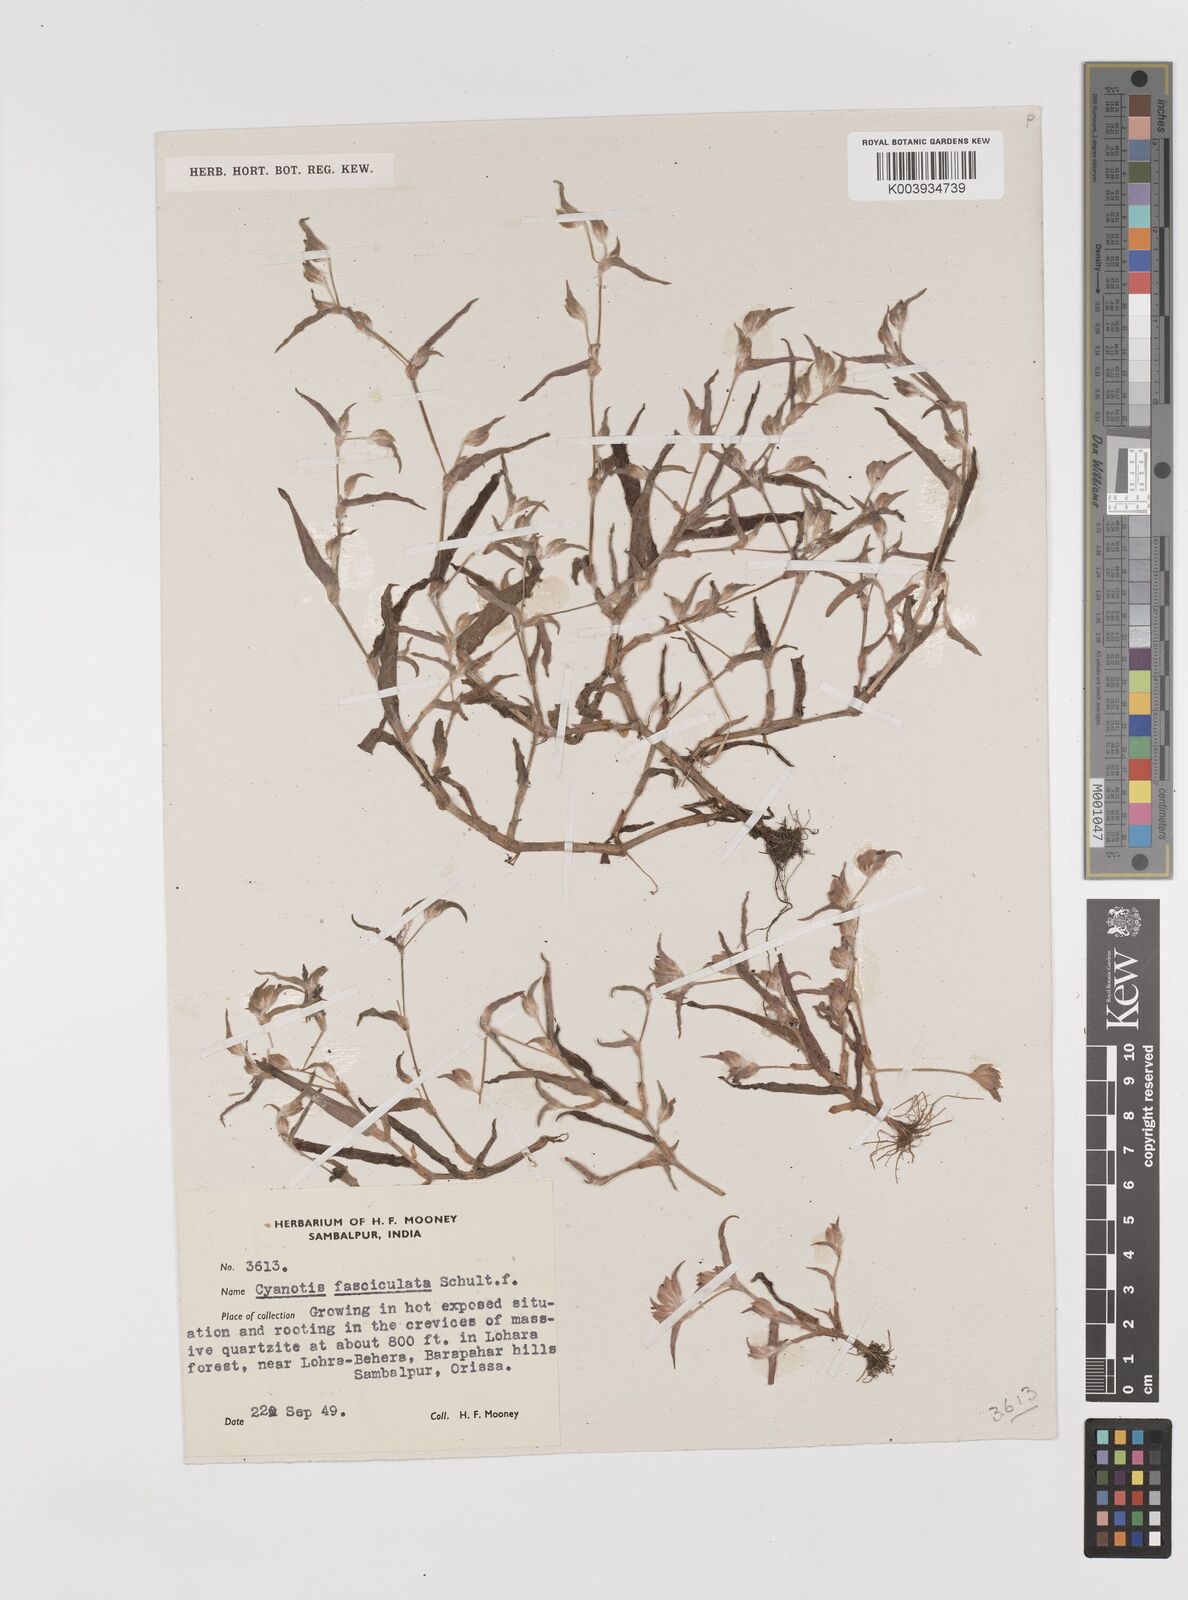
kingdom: Plantae
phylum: Tracheophyta
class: Liliopsida
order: Commelinales
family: Commelinaceae
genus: Cyanotis
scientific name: Cyanotis fasciculata
